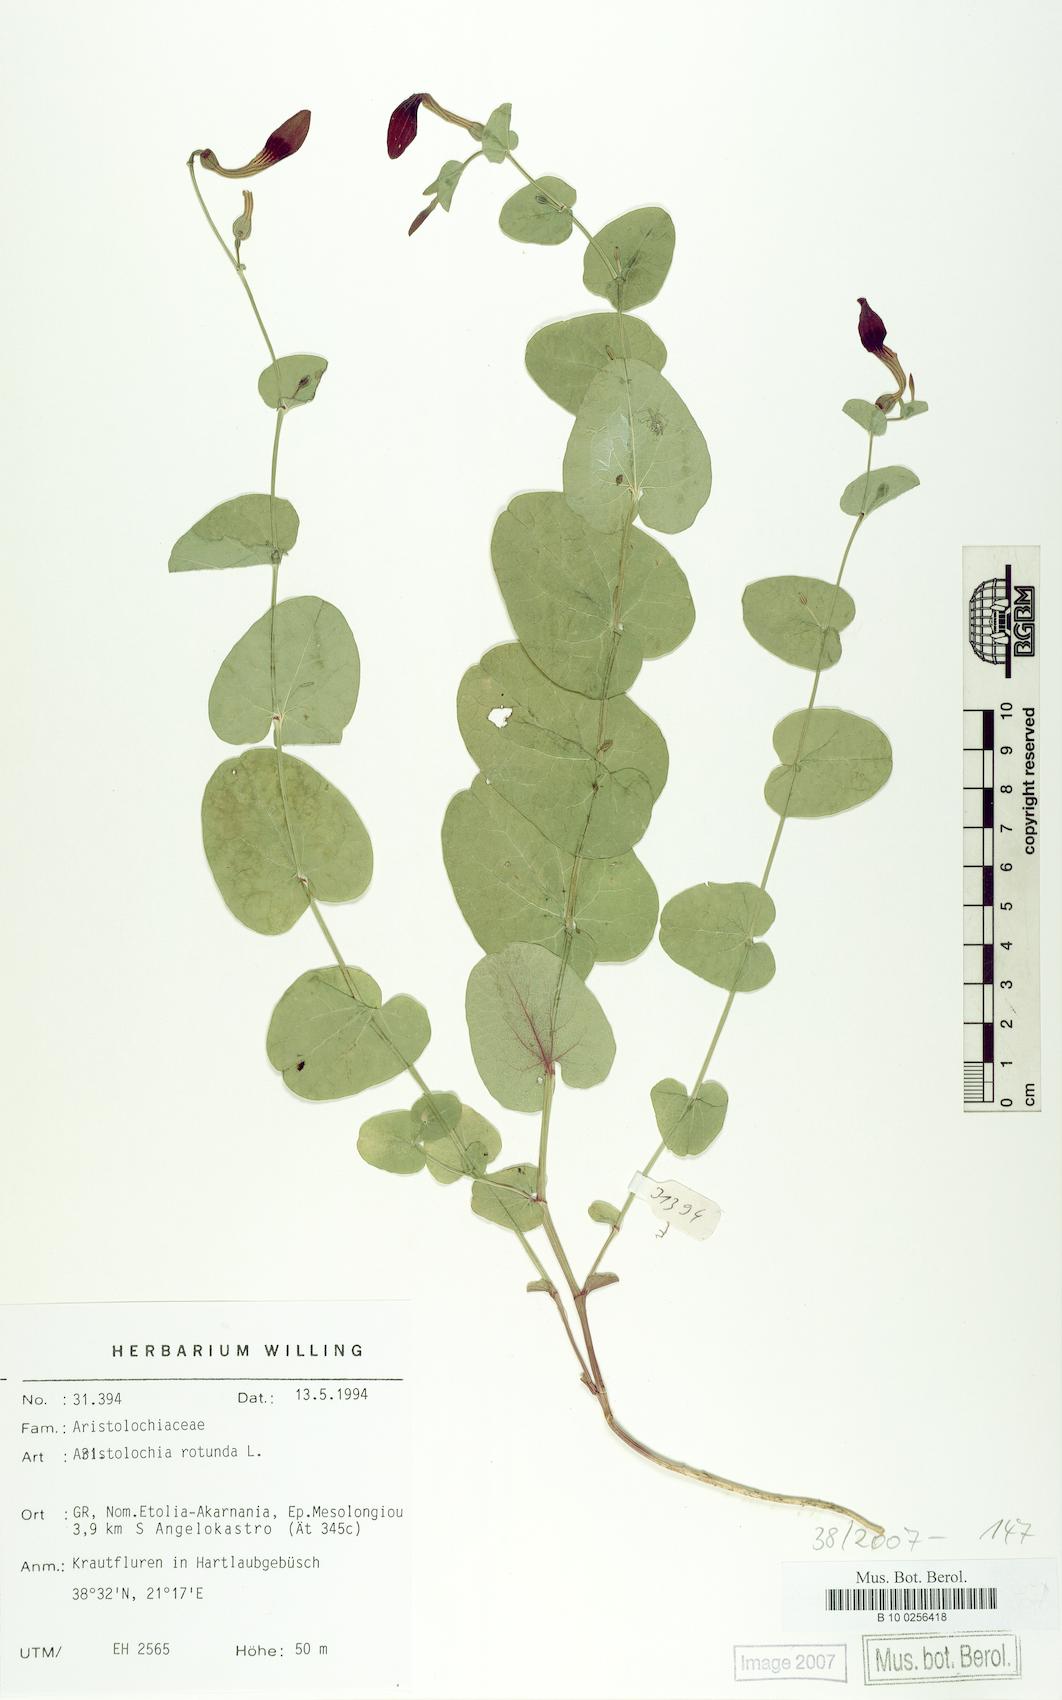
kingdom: Plantae
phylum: Tracheophyta
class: Magnoliopsida
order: Piperales
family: Aristolochiaceae
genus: Aristolochia
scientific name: Aristolochia rotunda
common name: Smearwort
